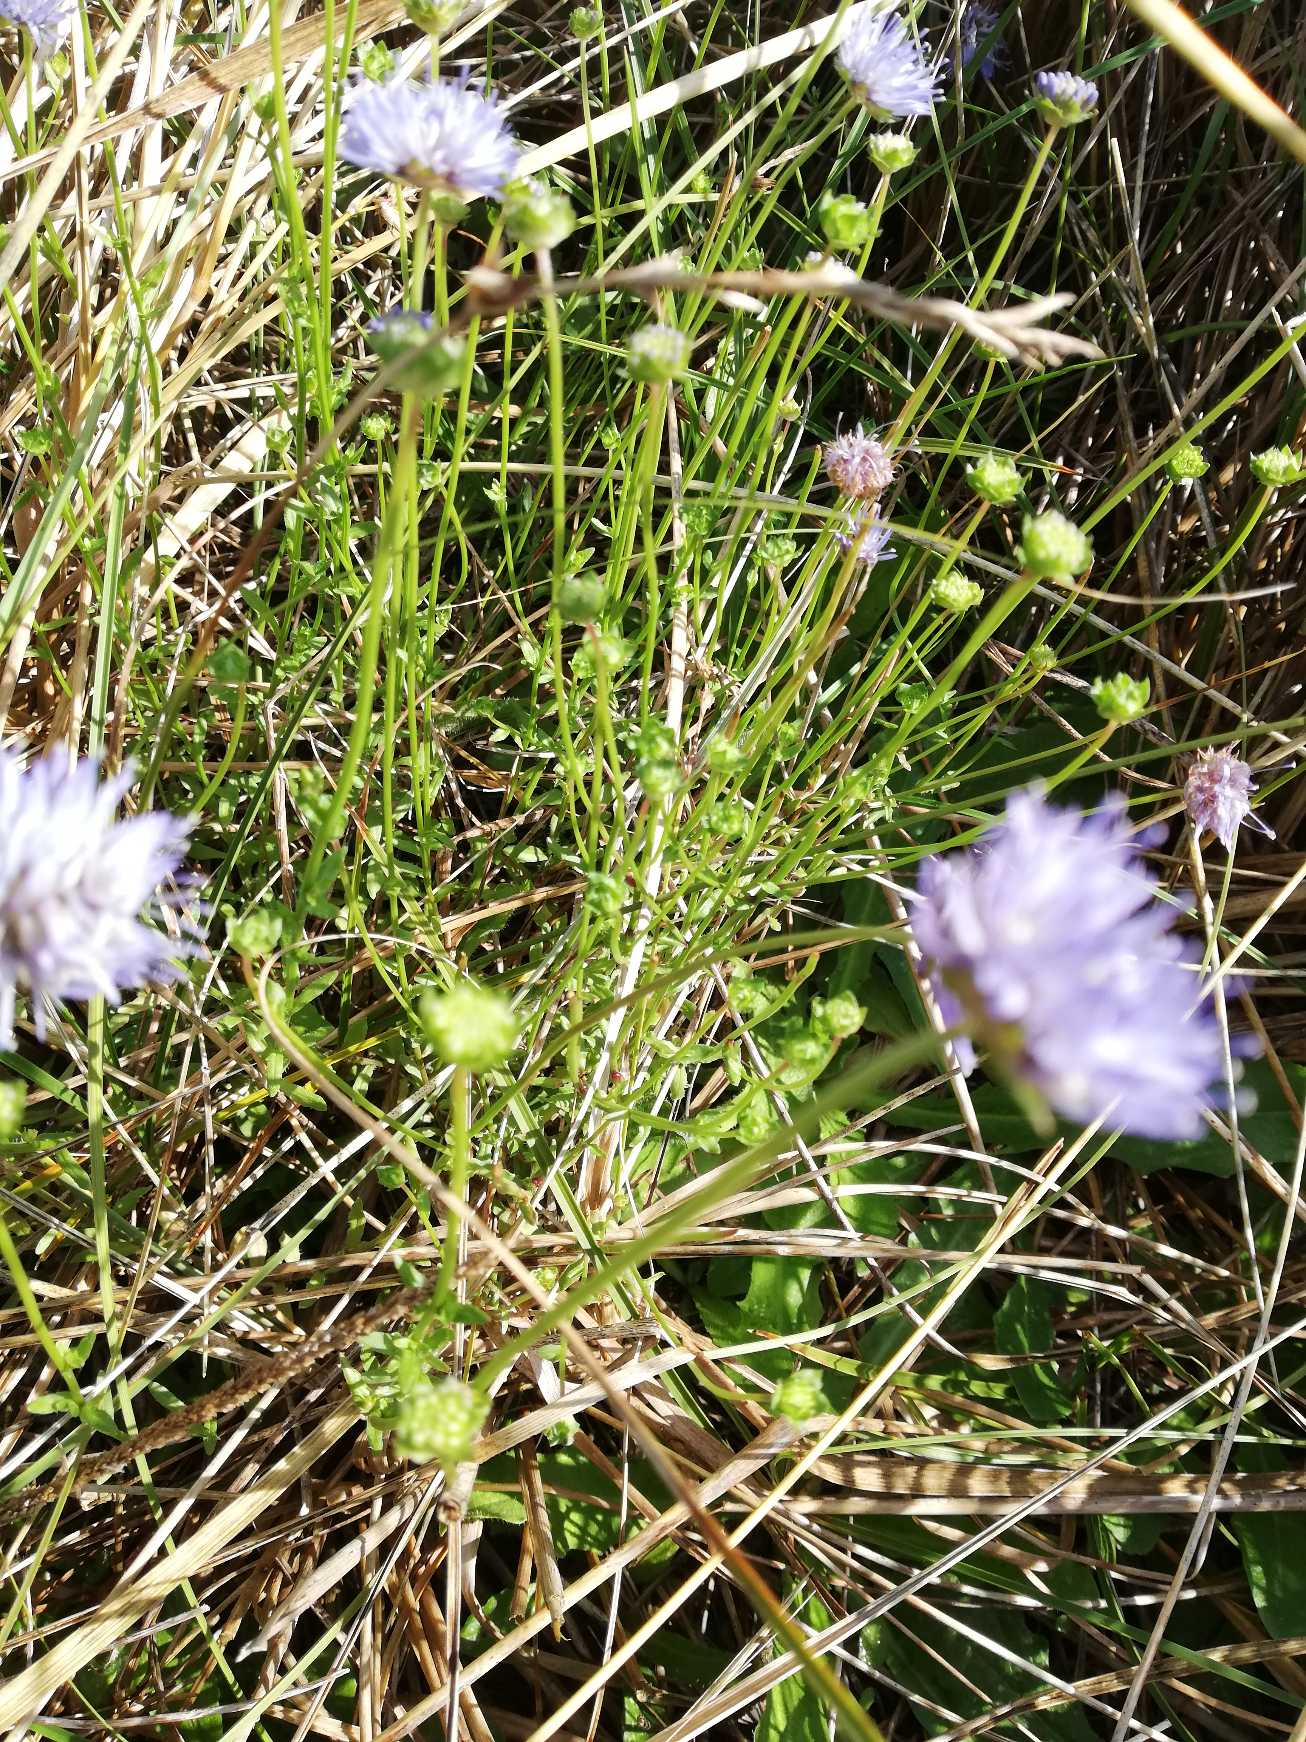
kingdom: Plantae
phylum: Tracheophyta
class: Magnoliopsida
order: Asterales
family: Campanulaceae
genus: Jasione
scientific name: Jasione montana
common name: Blåmunke
